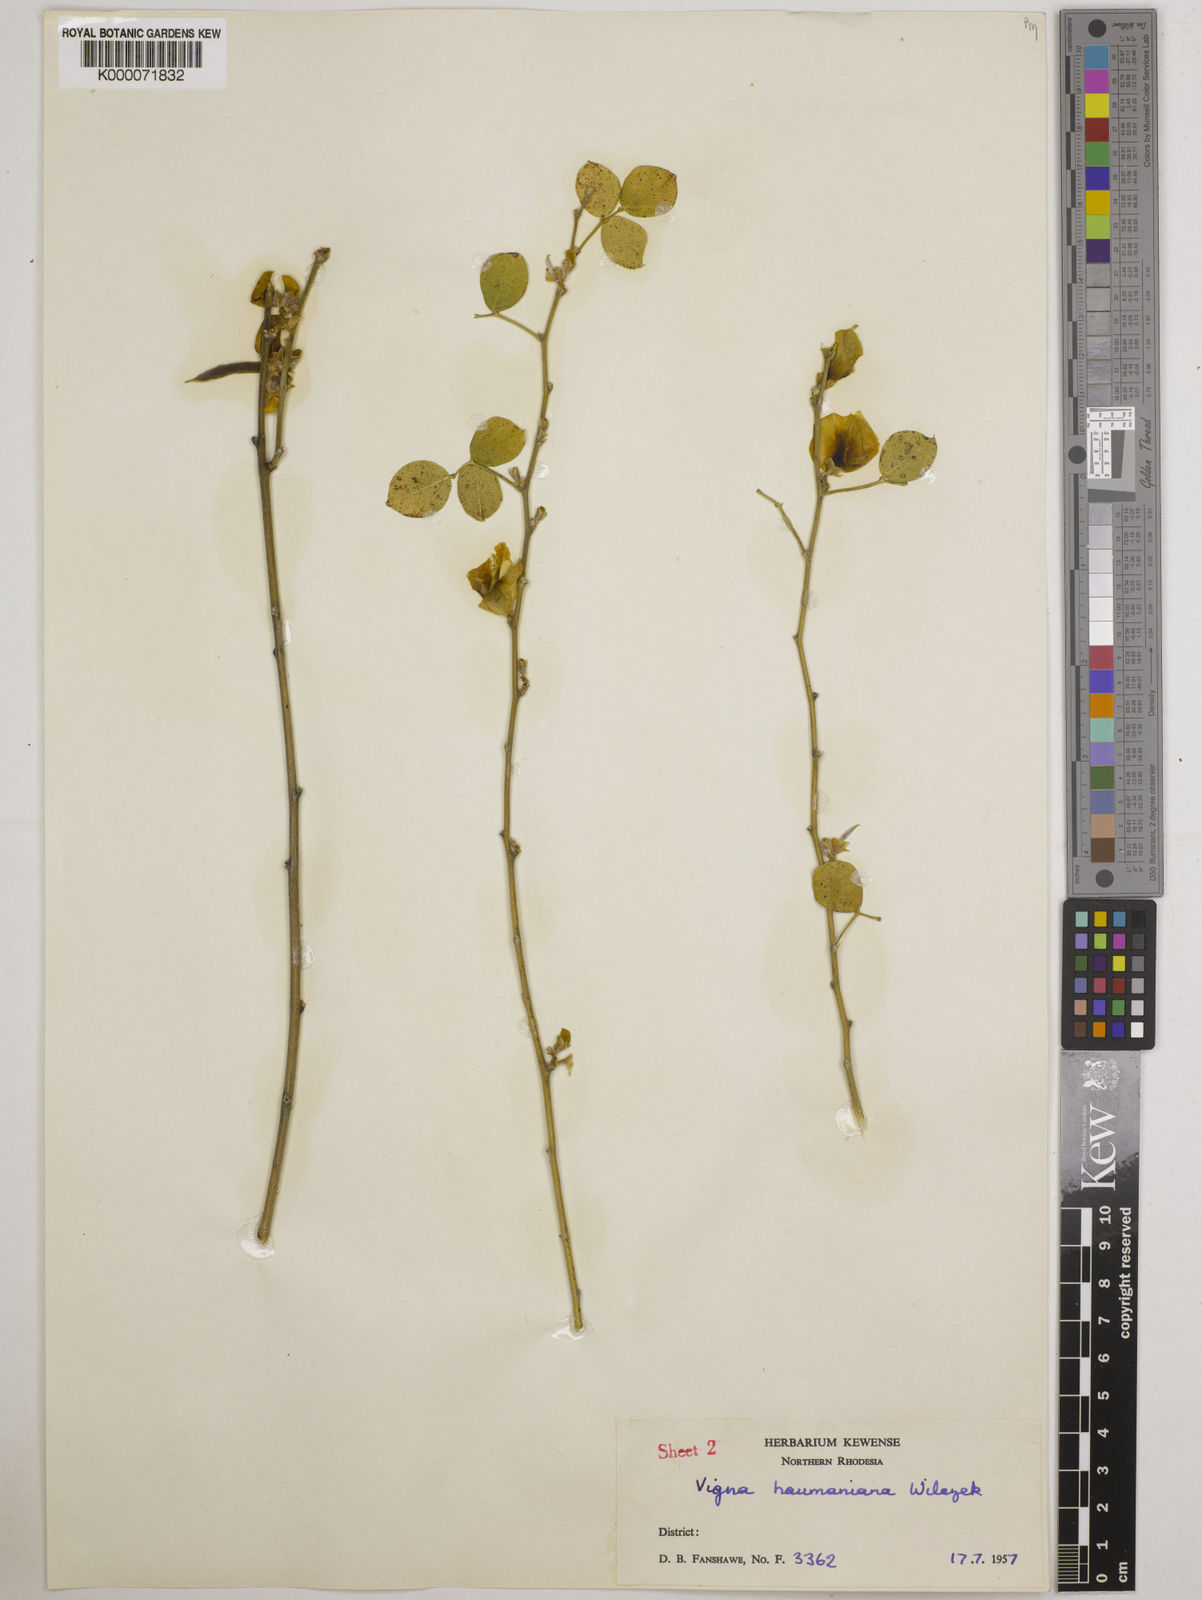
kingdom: Plantae
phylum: Tracheophyta
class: Magnoliopsida
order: Fabales
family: Fabaceae
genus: Vigna
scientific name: Vigna haumaniana
